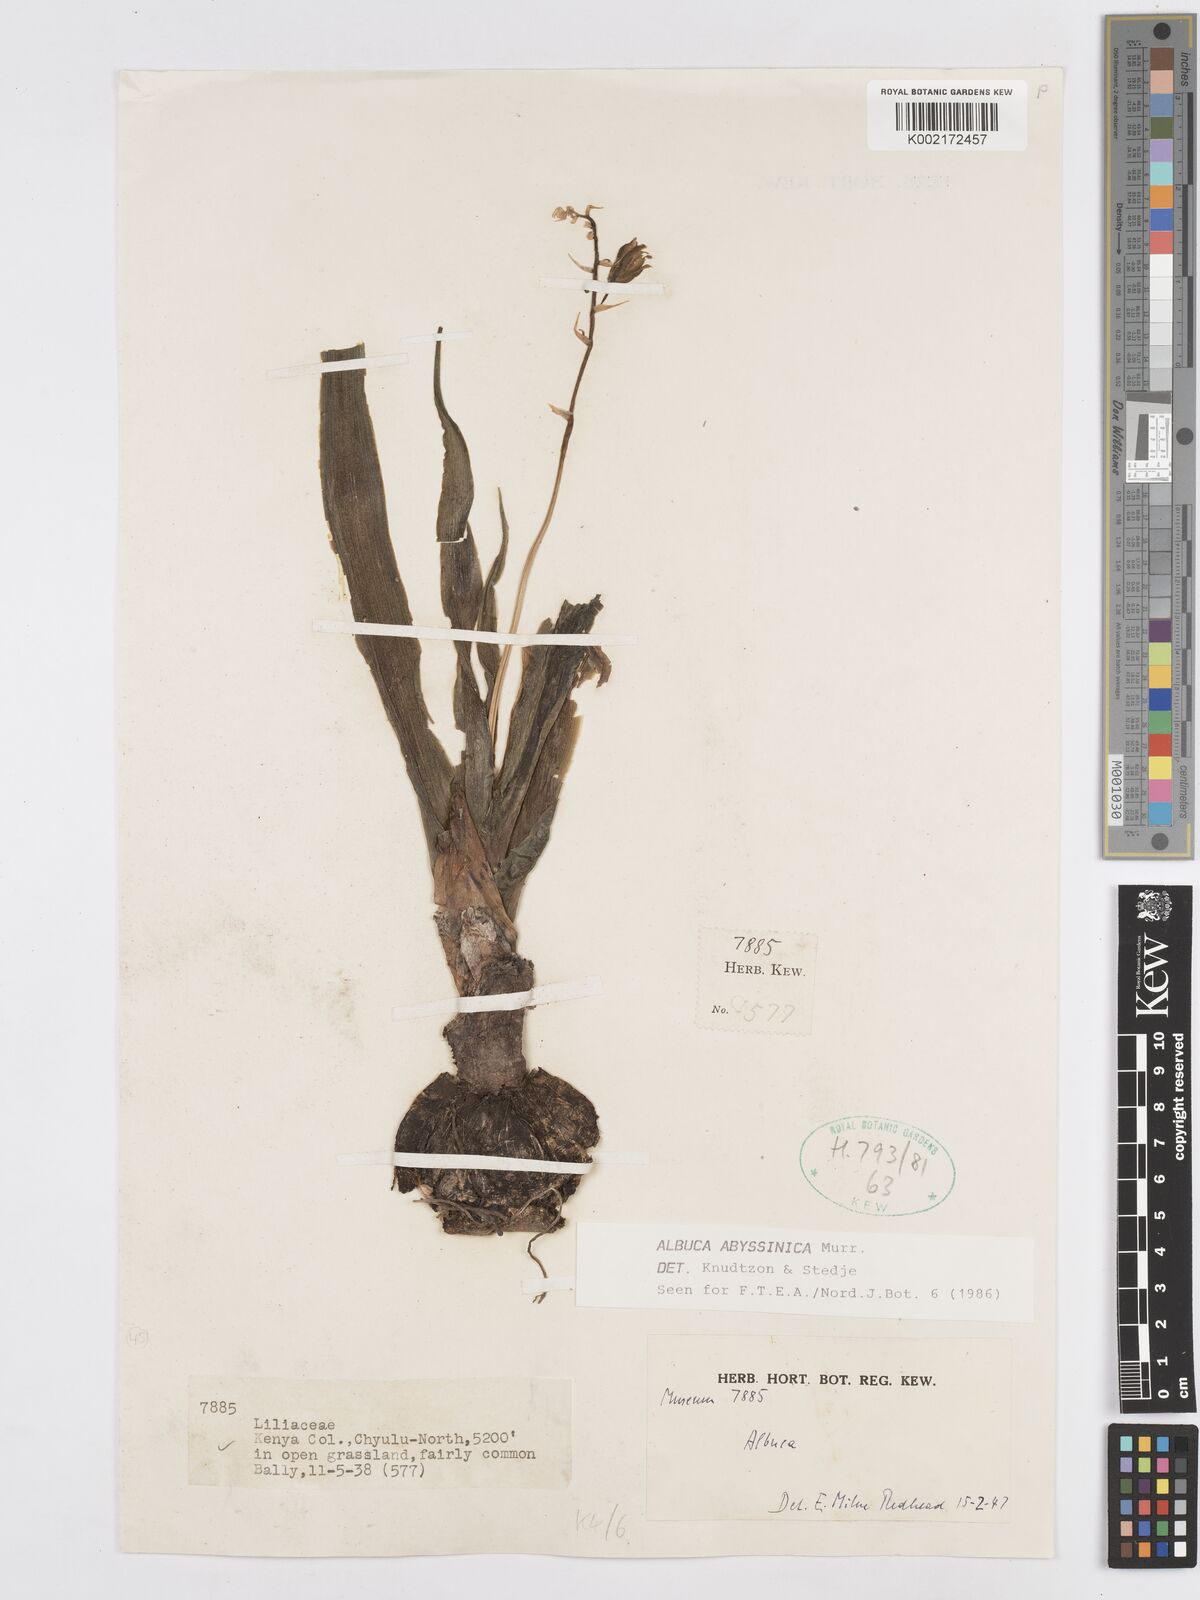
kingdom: Plantae
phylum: Tracheophyta
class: Liliopsida
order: Asparagales
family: Asparagaceae
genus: Albuca
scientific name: Albuca abyssinica
